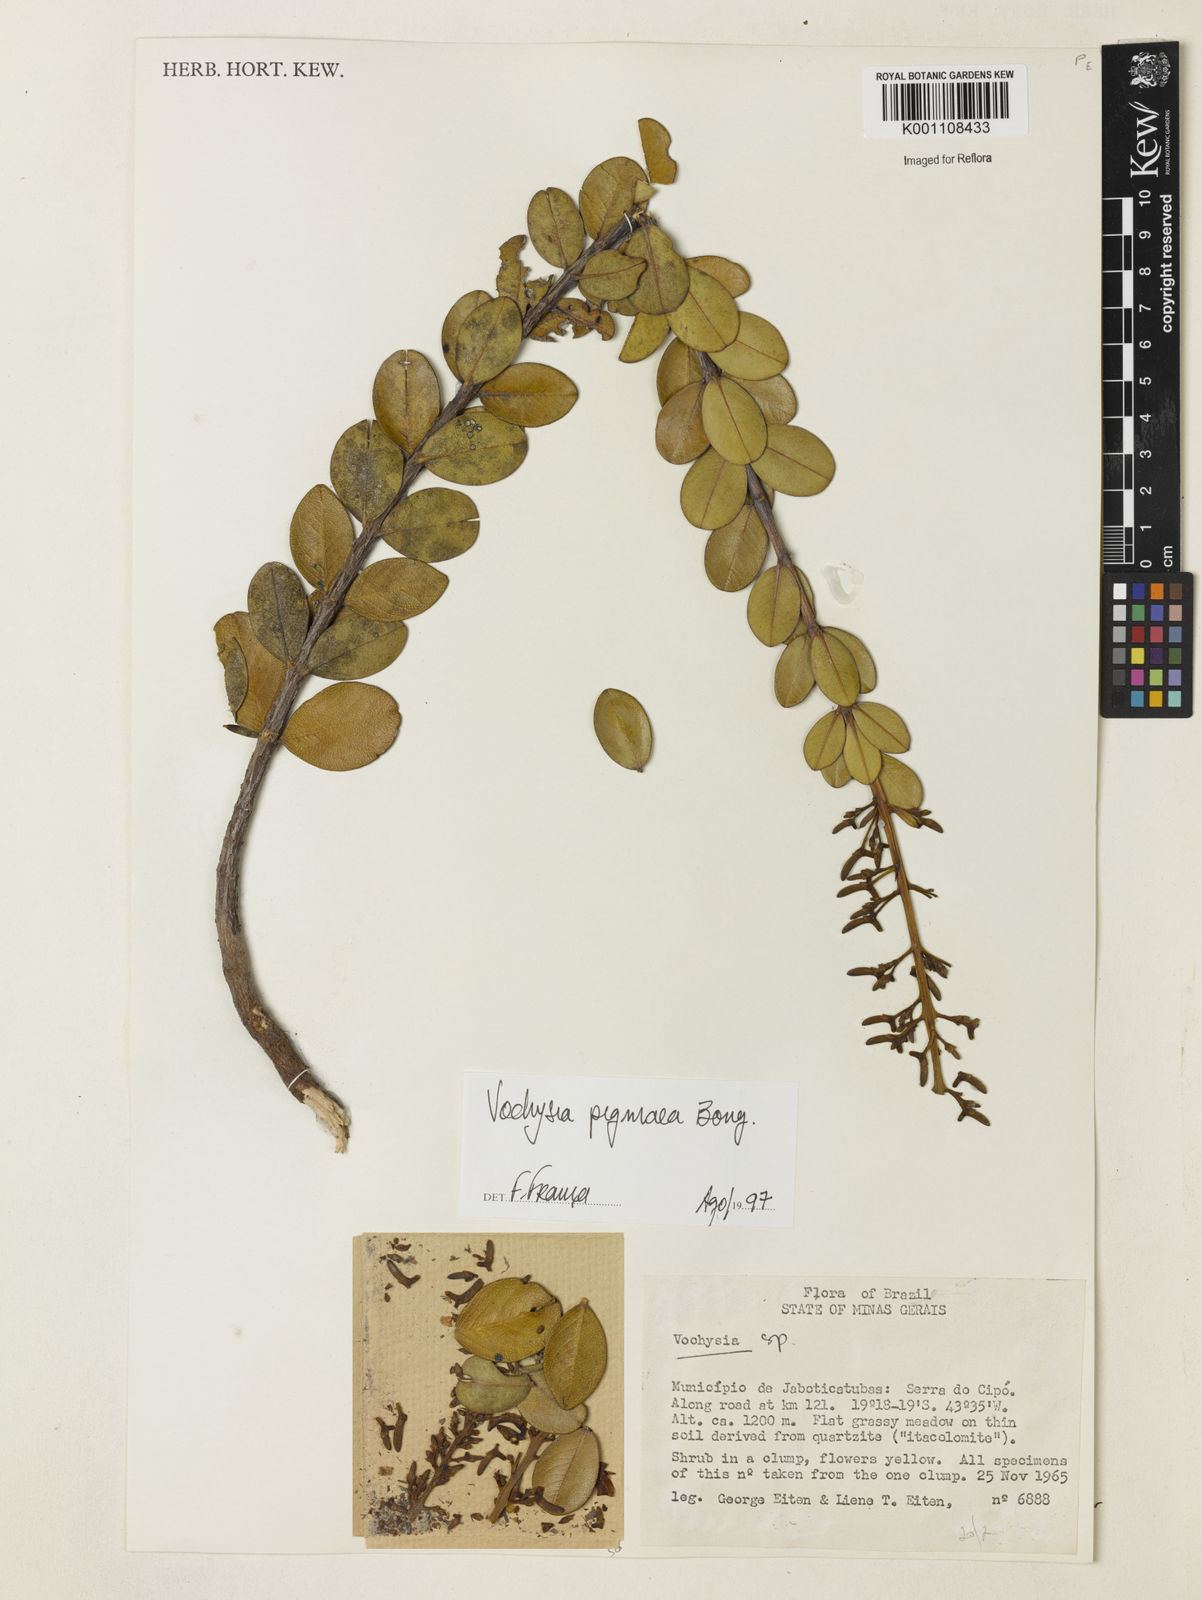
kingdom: Plantae
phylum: Tracheophyta
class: Magnoliopsida
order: Myrtales
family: Vochysiaceae
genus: Vochysia
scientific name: Vochysia pygmaea
